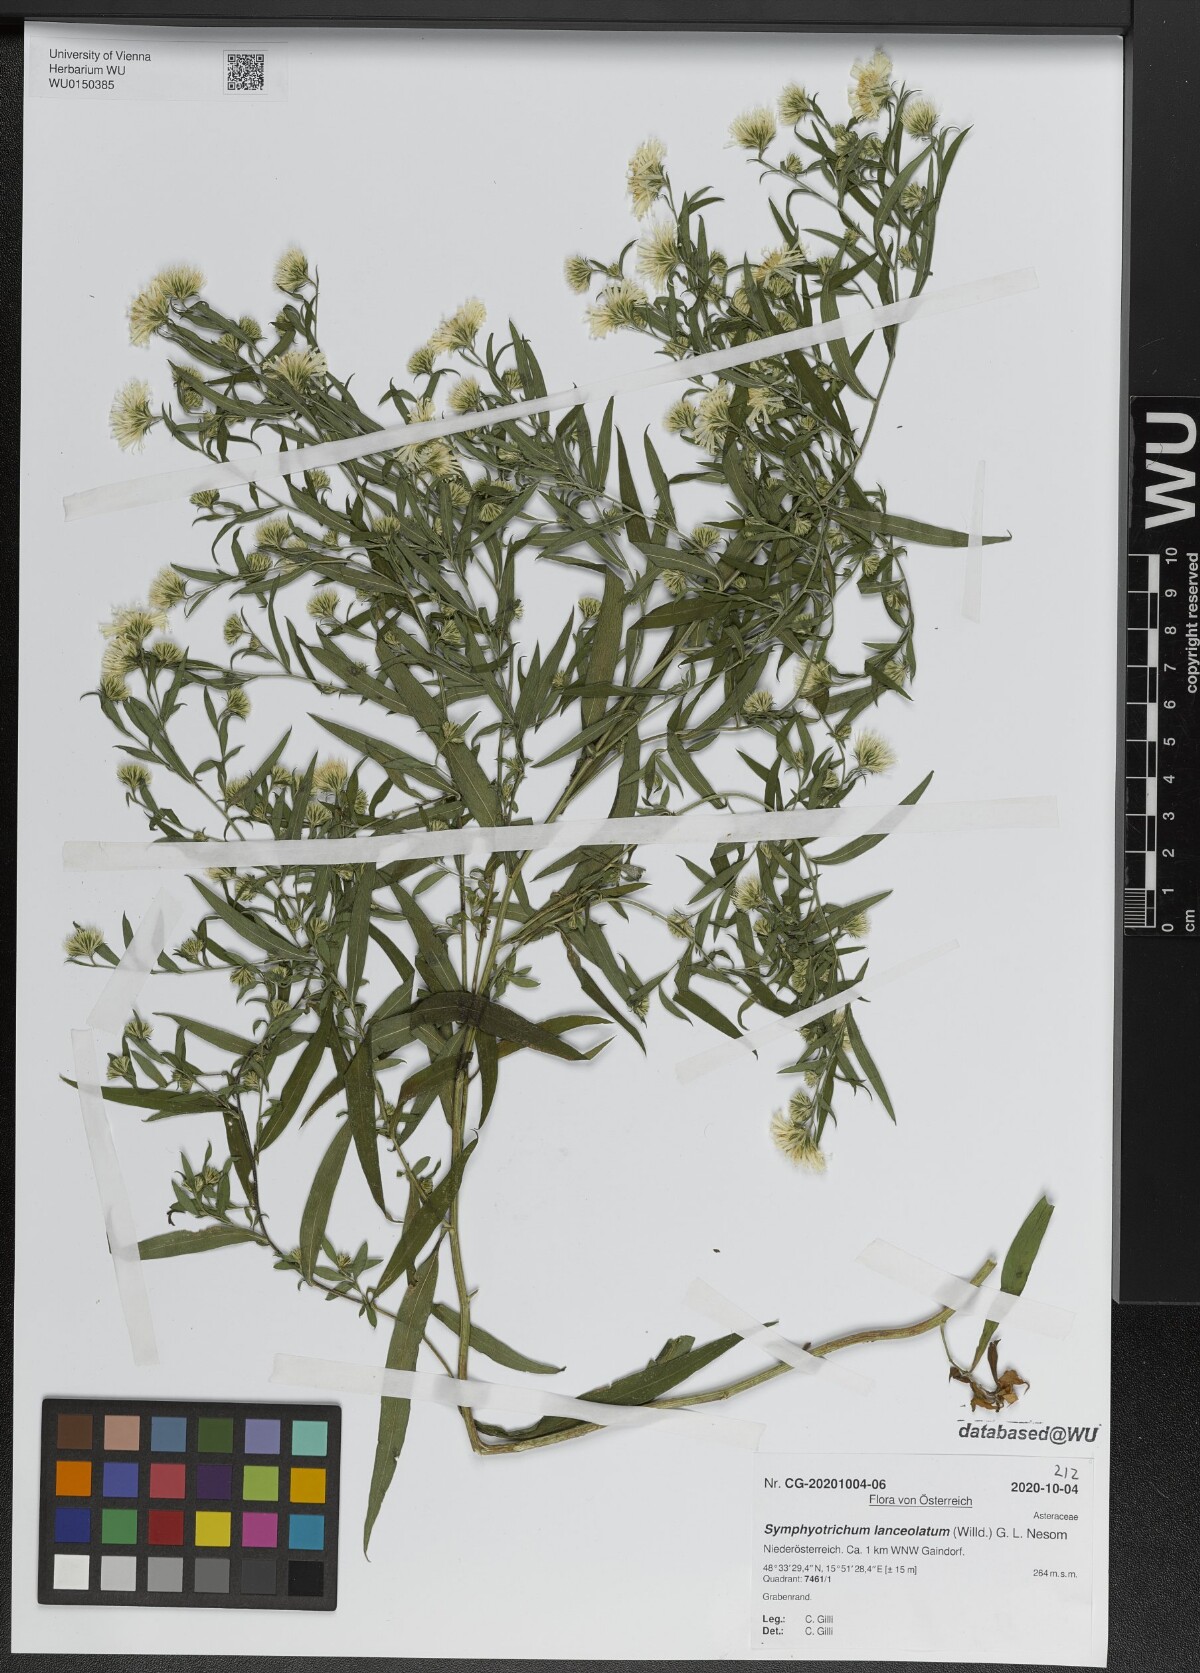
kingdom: Plantae
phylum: Tracheophyta
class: Magnoliopsida
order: Asterales
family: Asteraceae
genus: Symphyotrichum
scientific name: Symphyotrichum lanceolatum
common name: Panicled aster
